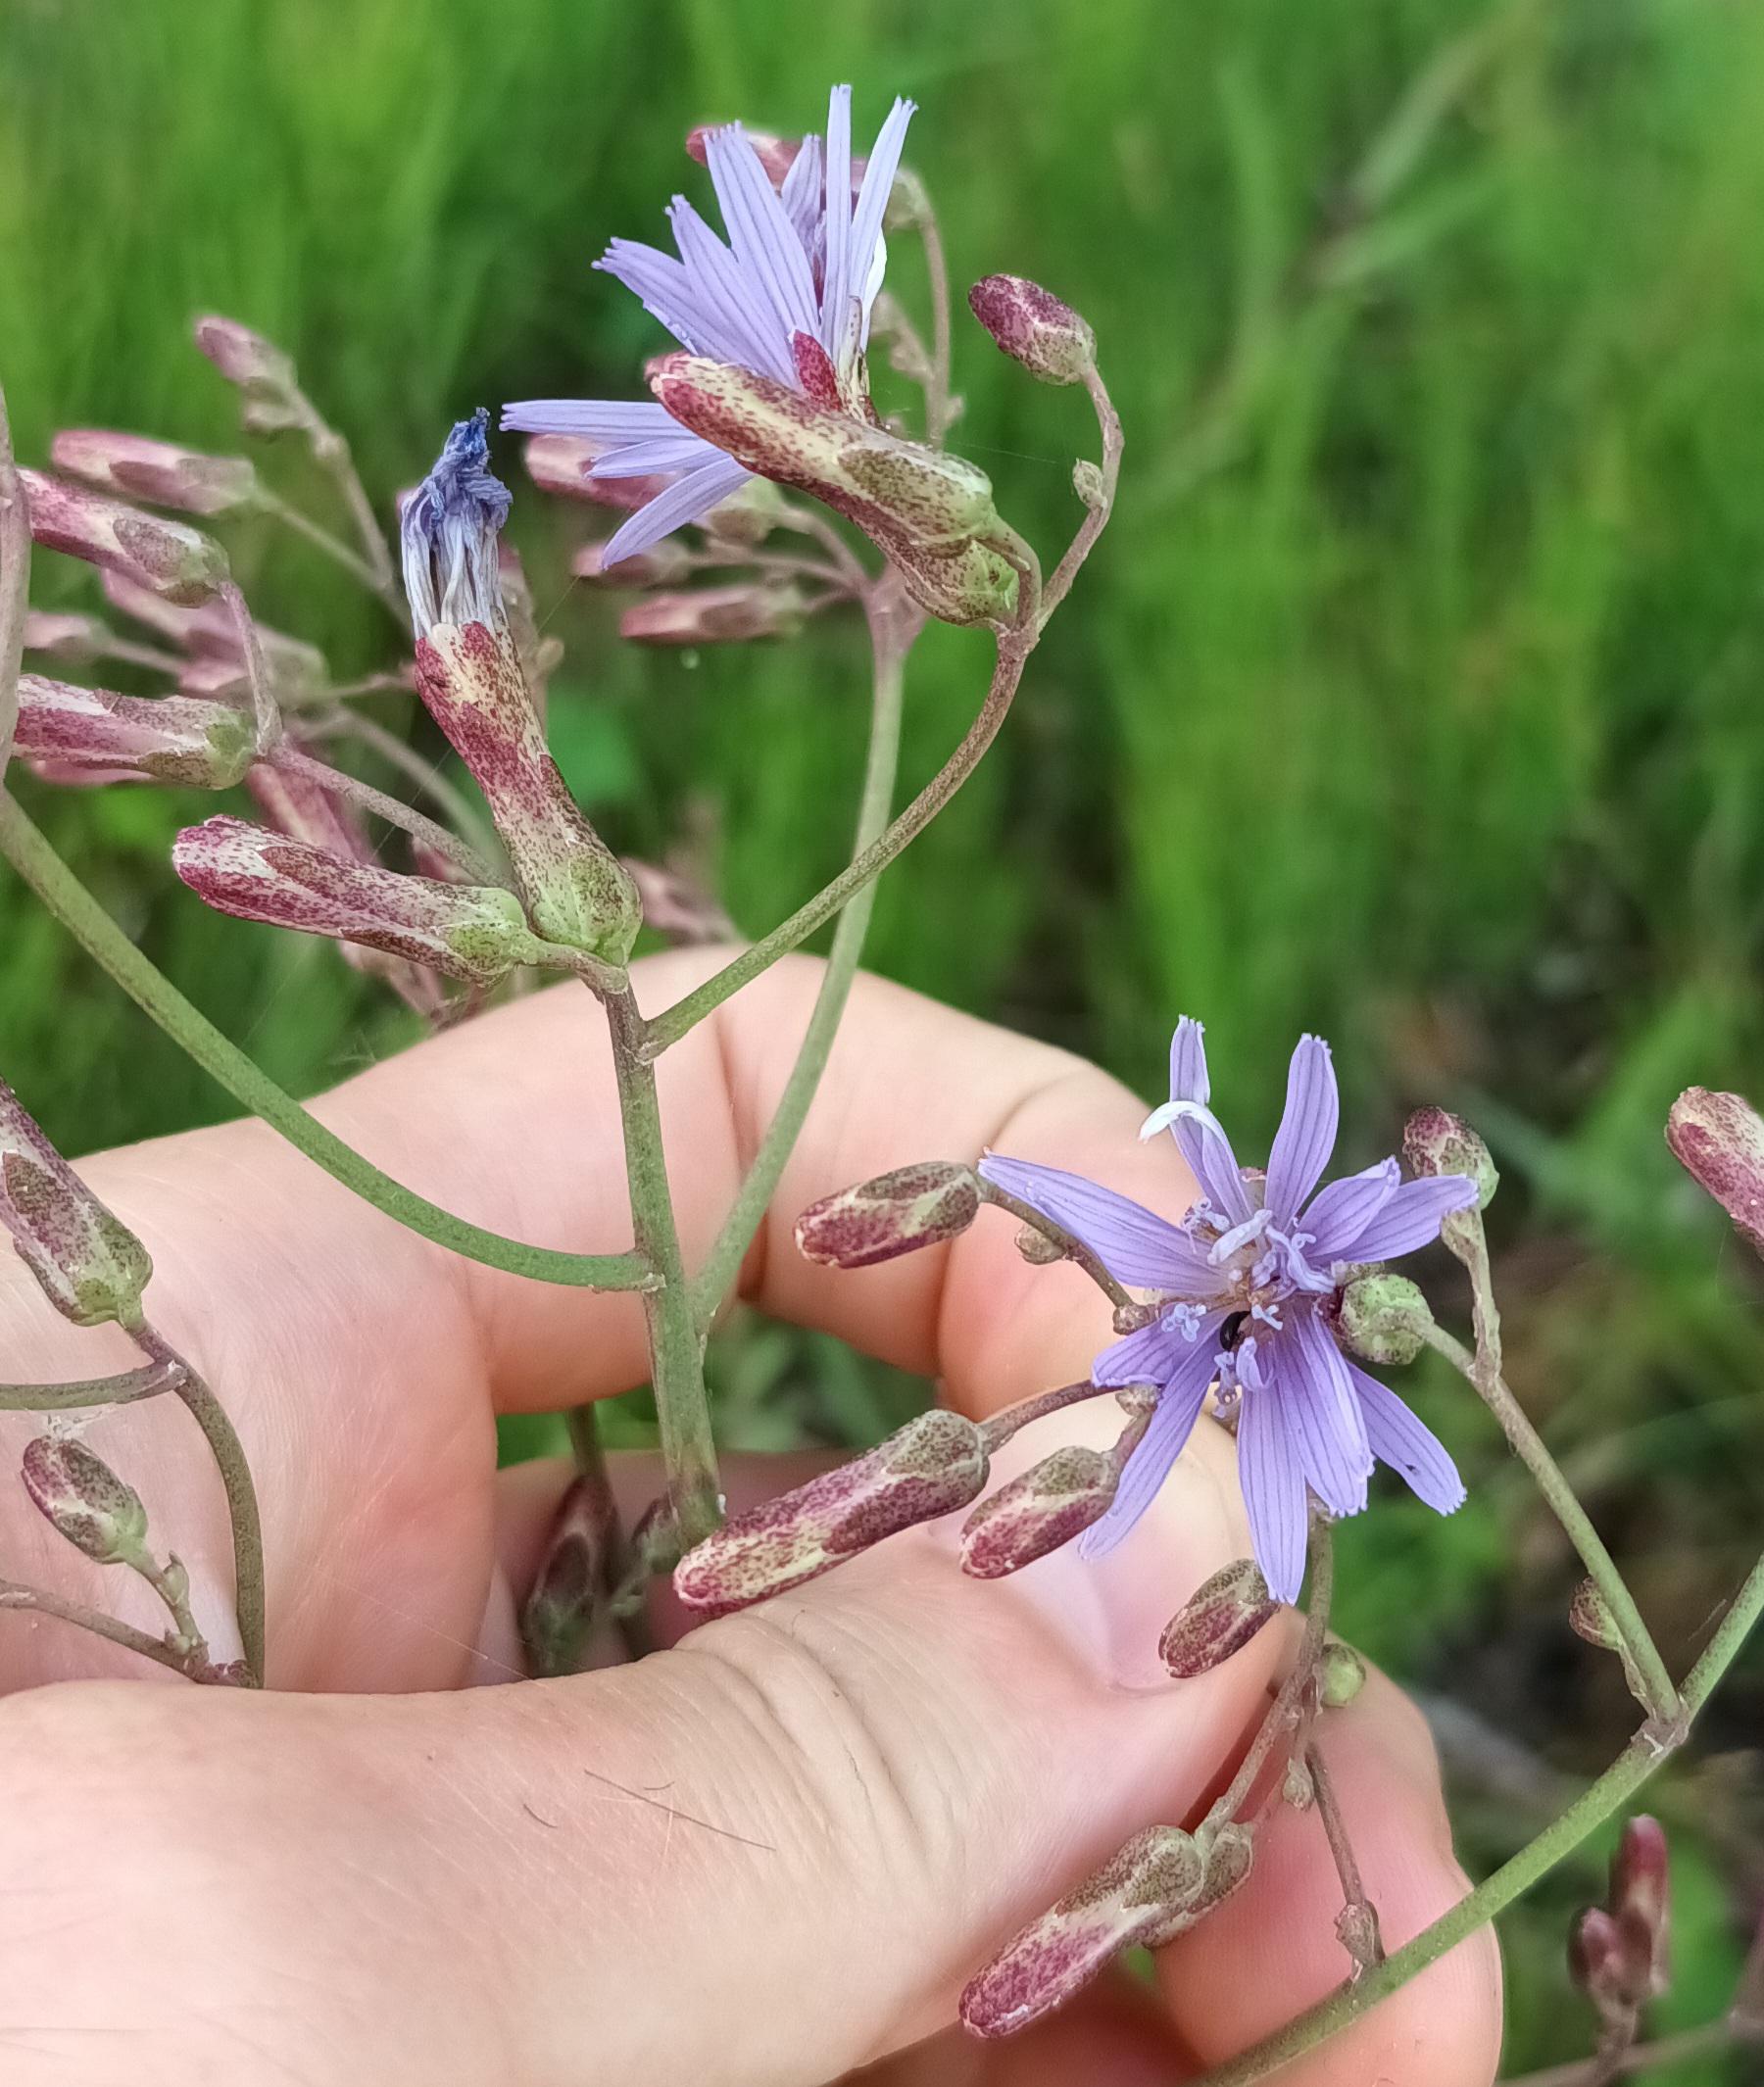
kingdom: Plantae
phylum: Tracheophyta
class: Magnoliopsida
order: Asterales
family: Asteraceae
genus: Lactuca
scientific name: Lactuca tatarica
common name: Strand-salat
